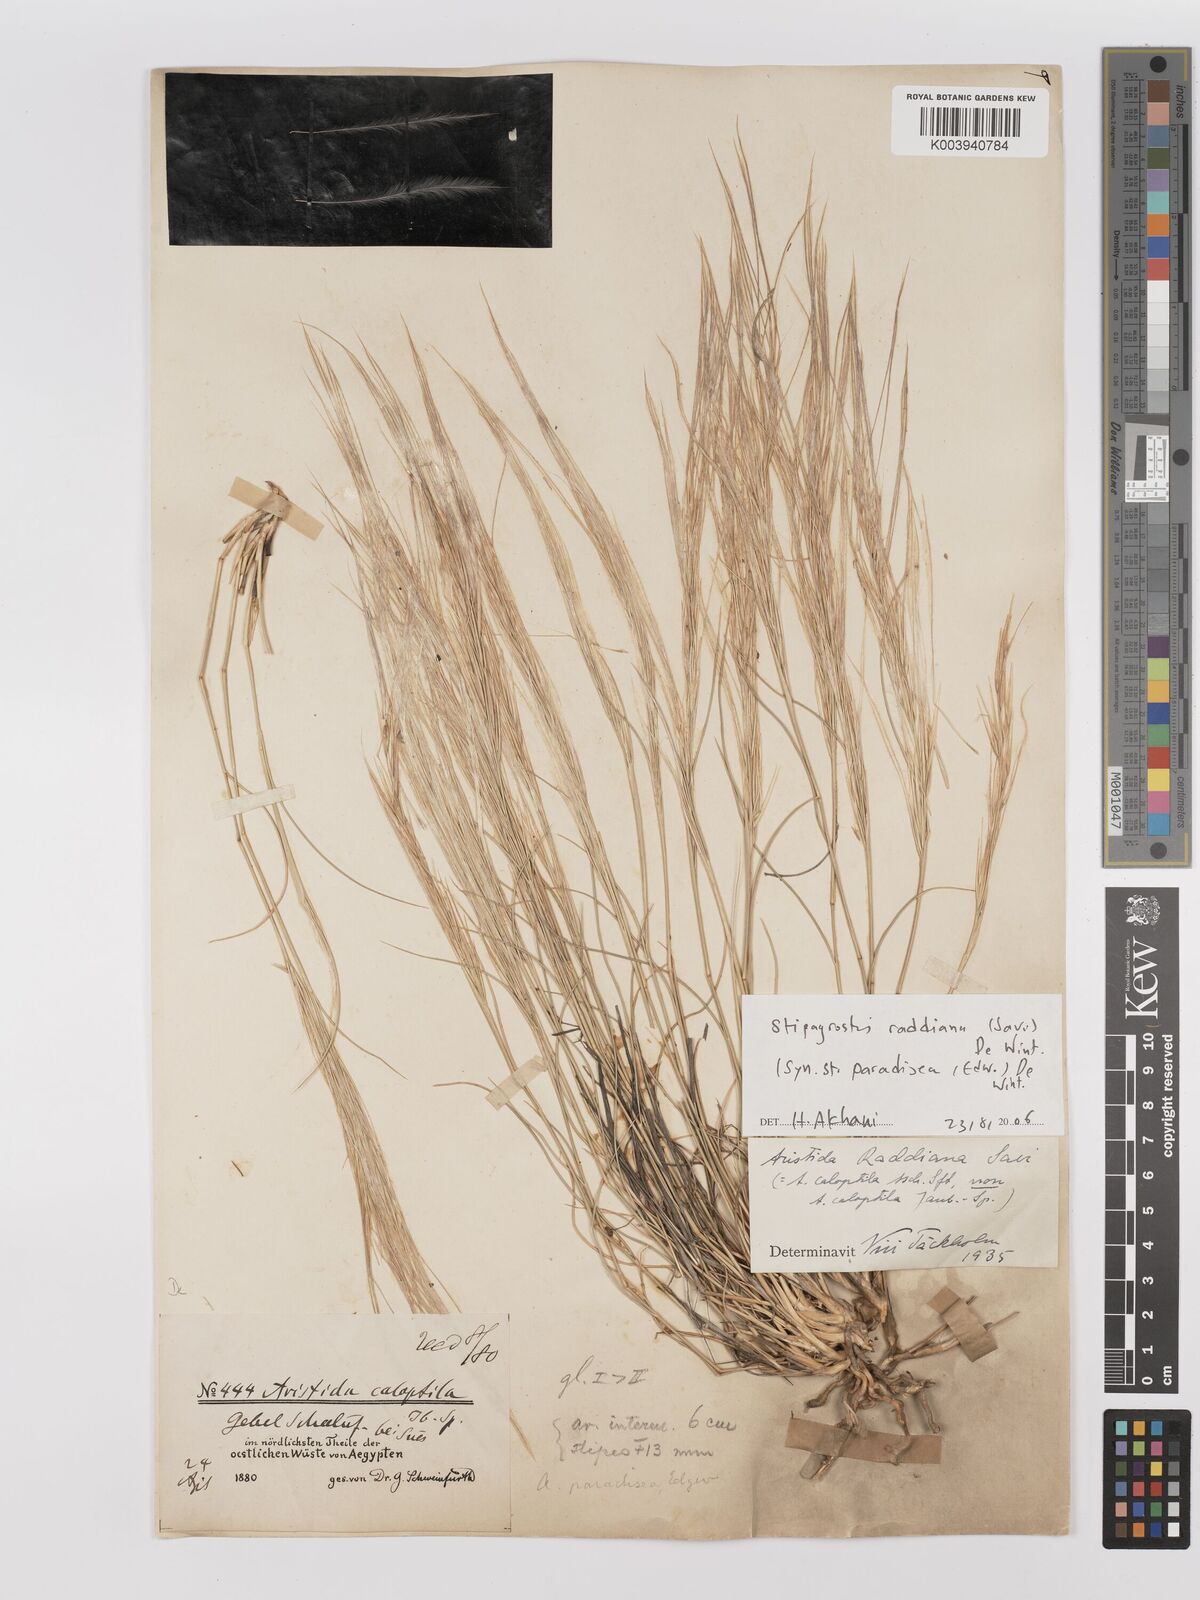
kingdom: Plantae
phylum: Tracheophyta
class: Liliopsida
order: Poales
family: Poaceae
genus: Stipagrostis
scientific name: Stipagrostis raddiana
